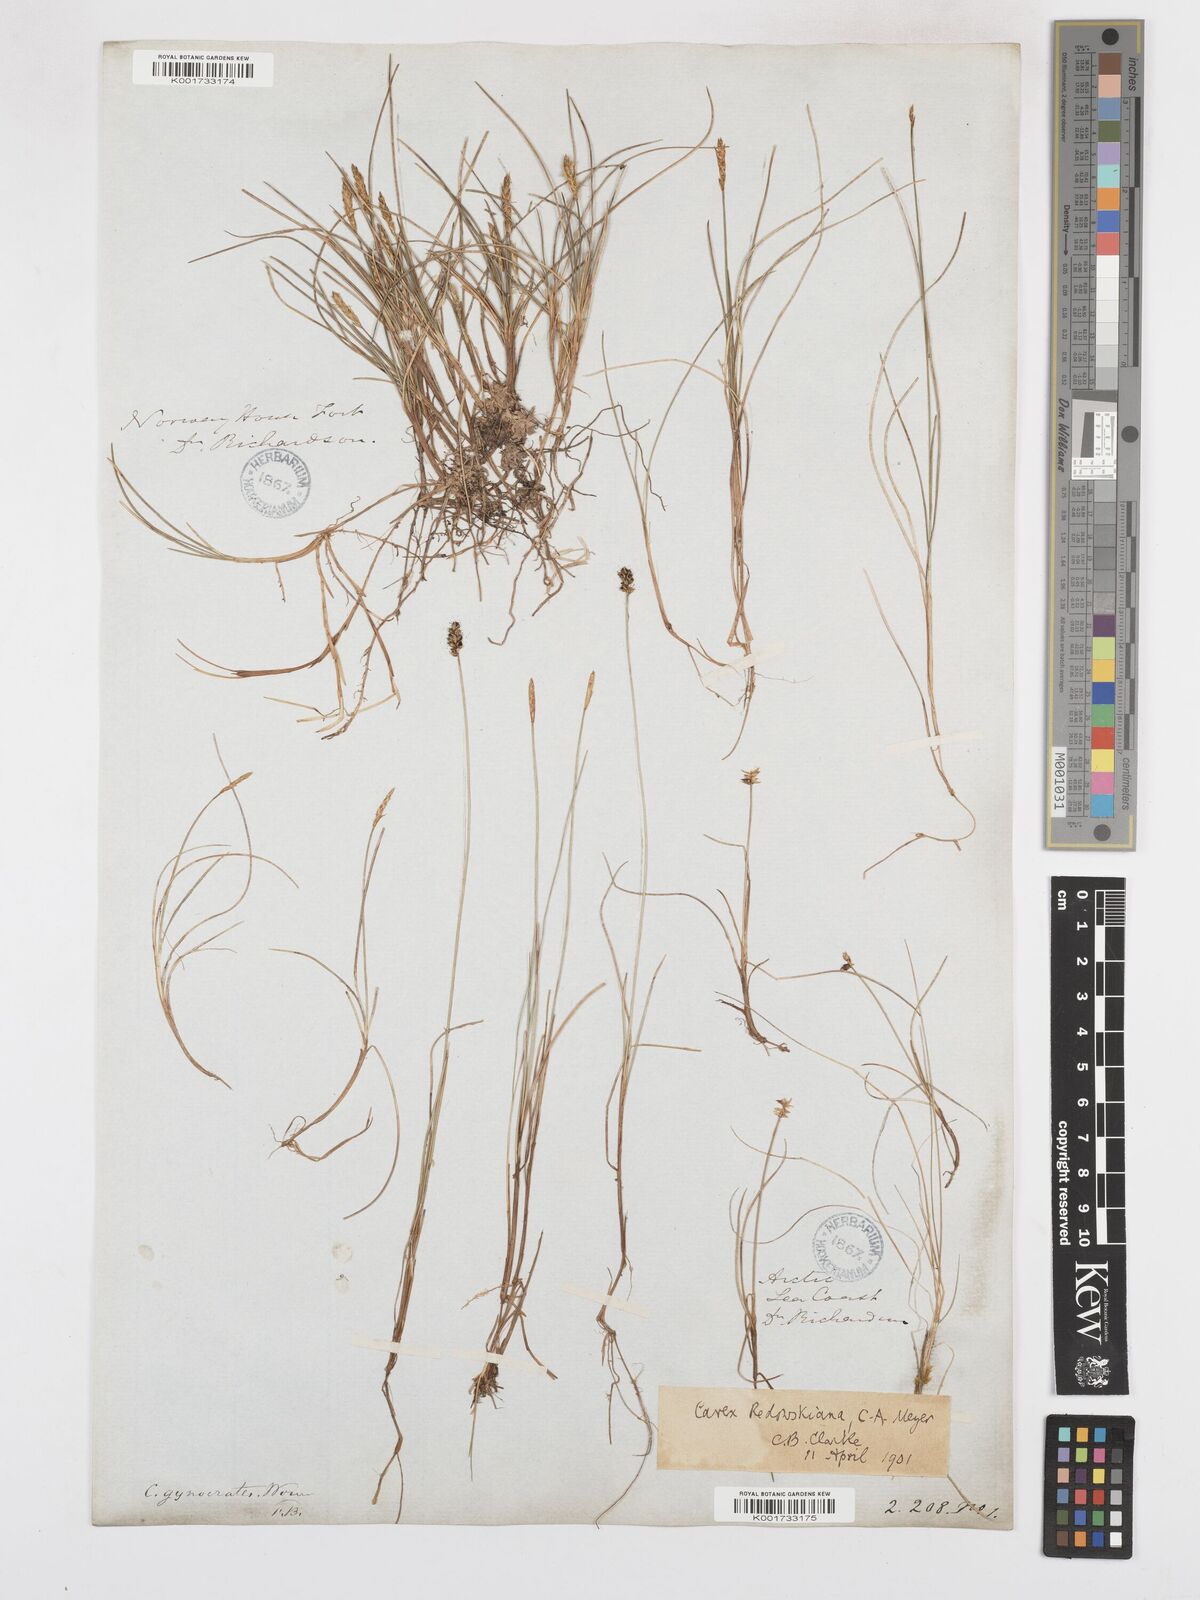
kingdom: Plantae
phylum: Tracheophyta
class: Liliopsida
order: Poales
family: Cyperaceae
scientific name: Cyperaceae
